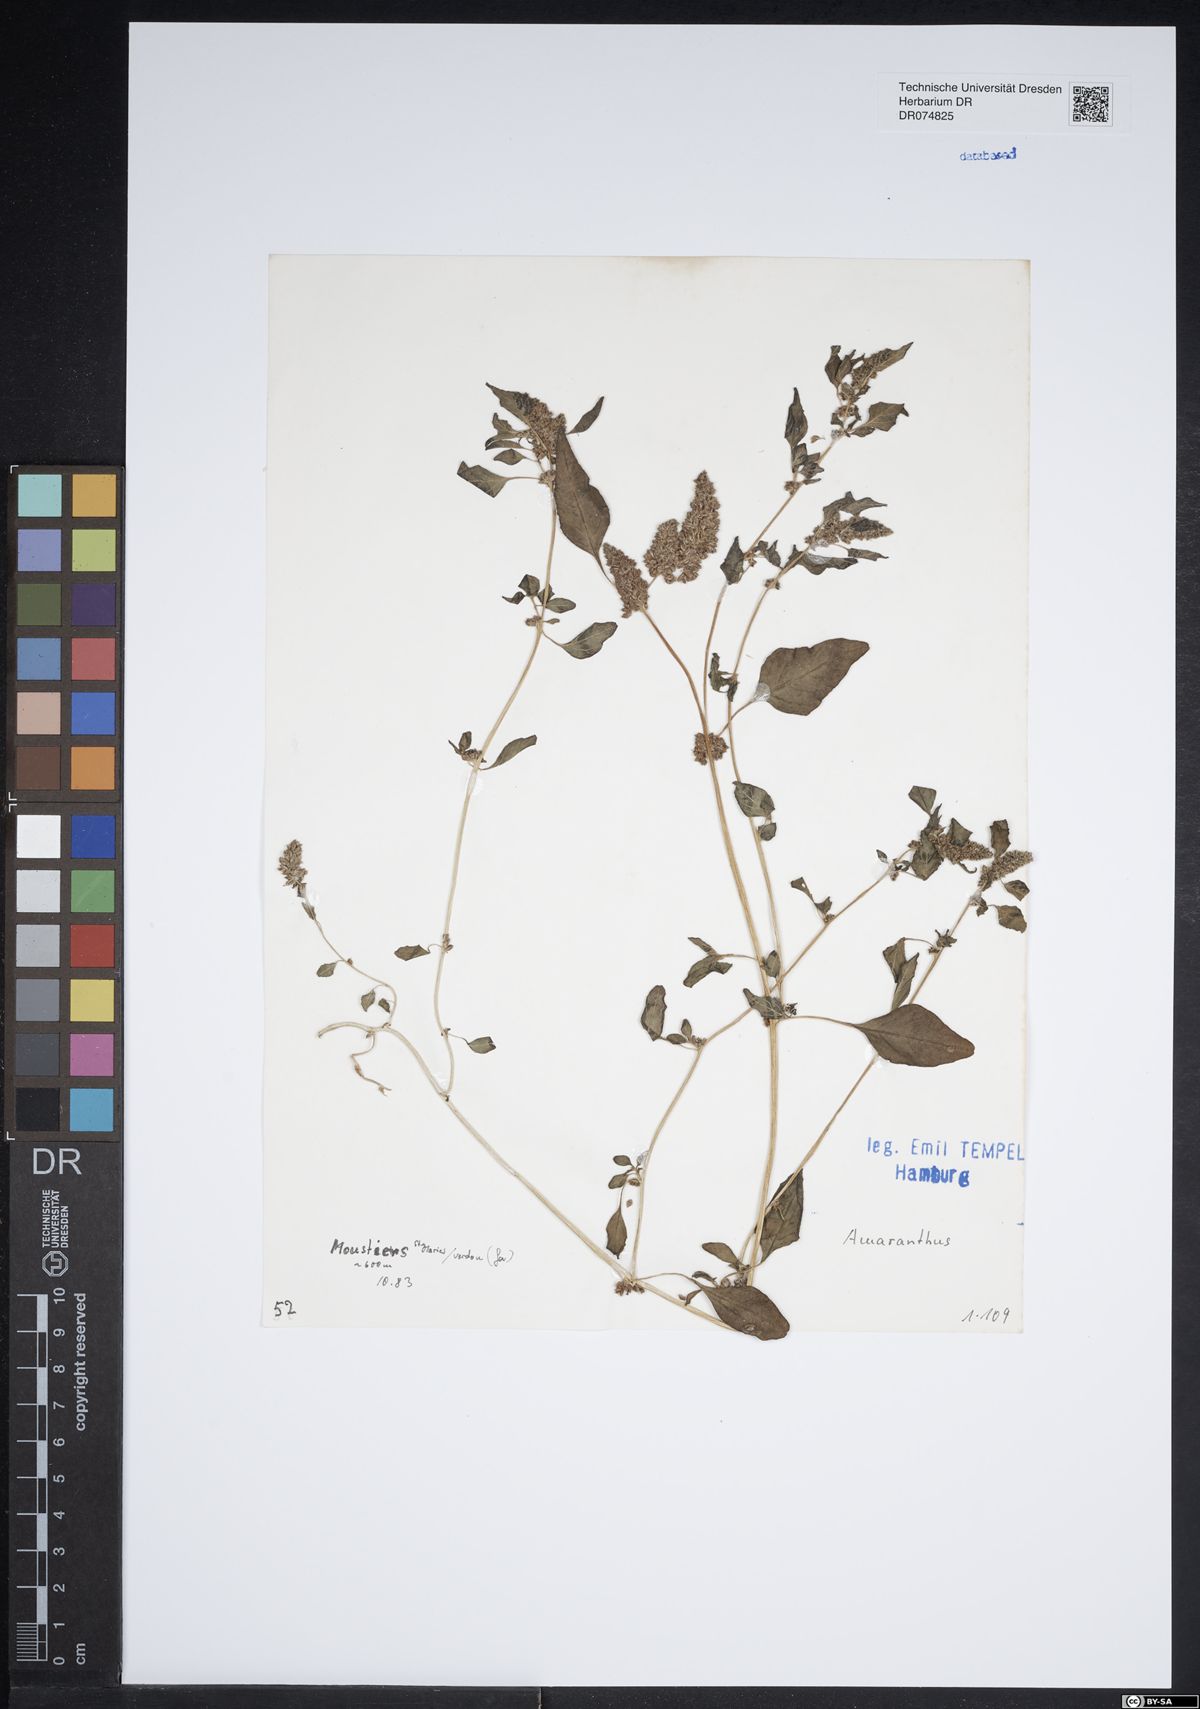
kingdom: Plantae
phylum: Tracheophyta
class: Magnoliopsida
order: Caryophyllales
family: Amaranthaceae
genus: Amaranthus
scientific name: Amaranthus
